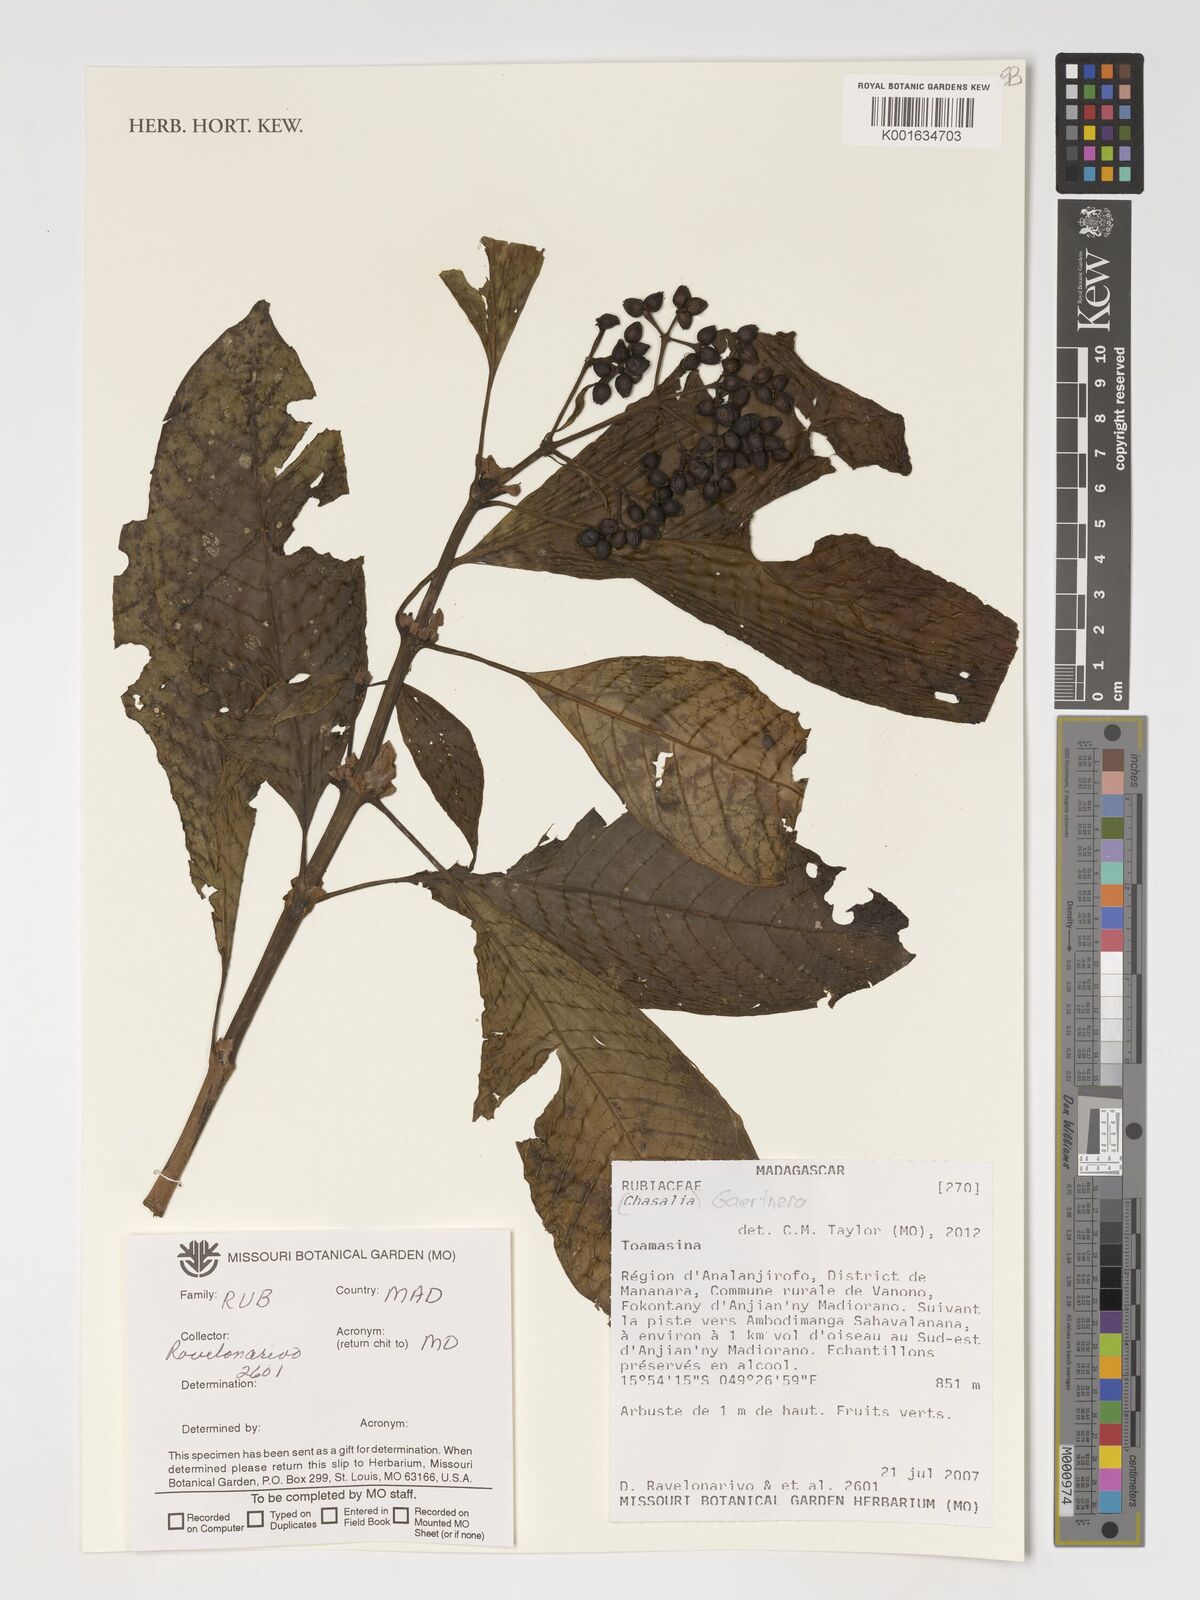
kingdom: Plantae
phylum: Tracheophyta
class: Magnoliopsida
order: Gentianales
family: Rubiaceae
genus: Gaertnera
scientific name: Gaertnera
